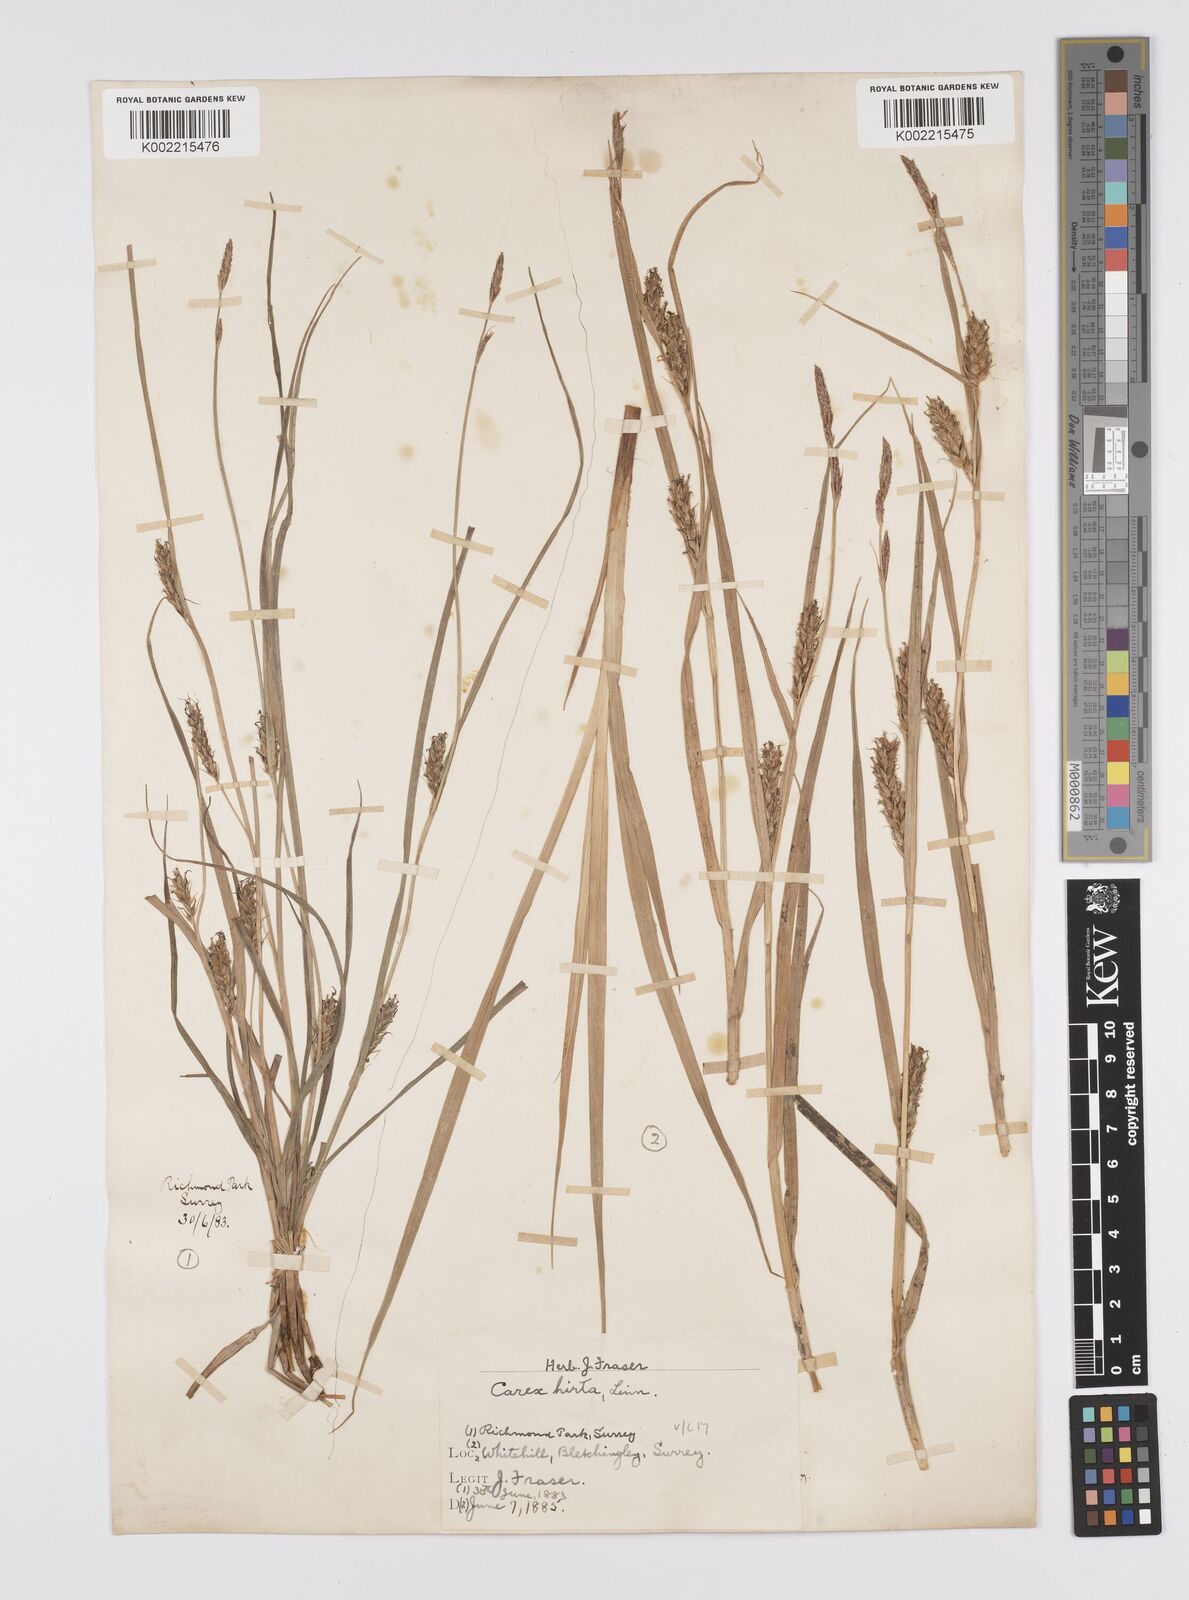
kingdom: Plantae
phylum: Tracheophyta
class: Liliopsida
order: Poales
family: Cyperaceae
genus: Carex
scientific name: Carex hirta
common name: Hairy sedge
